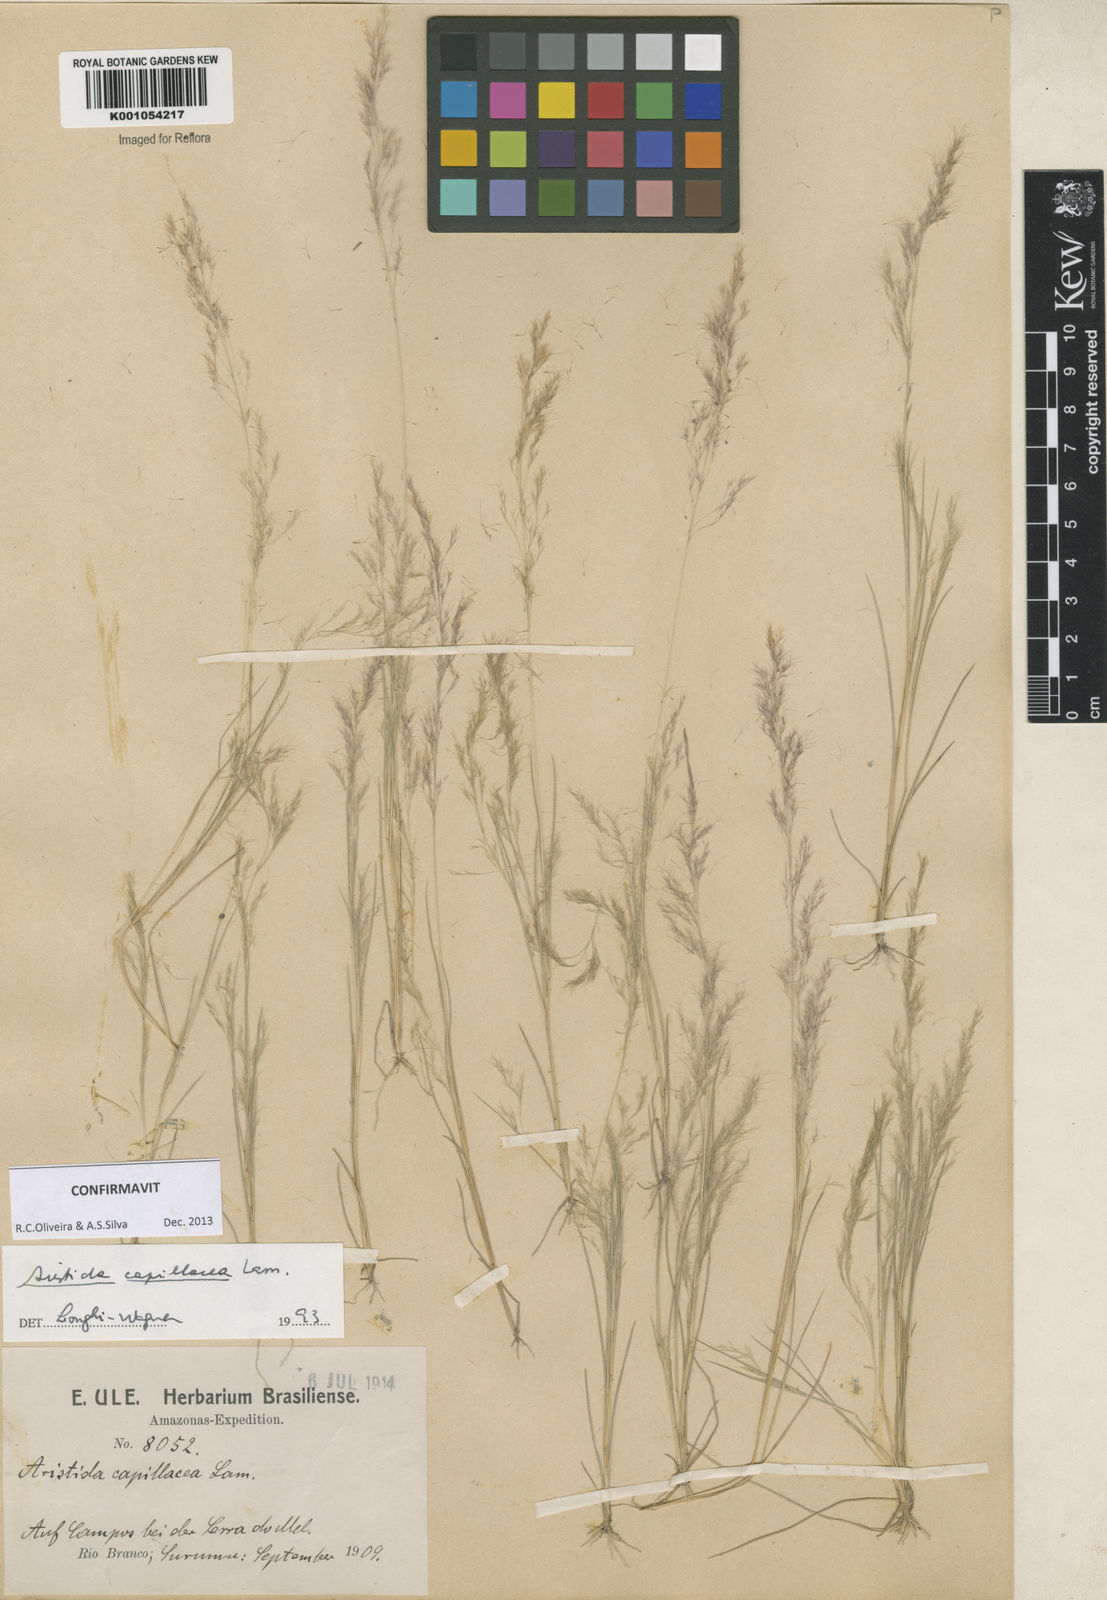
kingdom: Plantae
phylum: Tracheophyta
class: Liliopsida
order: Poales
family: Poaceae
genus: Aristida
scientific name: Aristida capillacea
